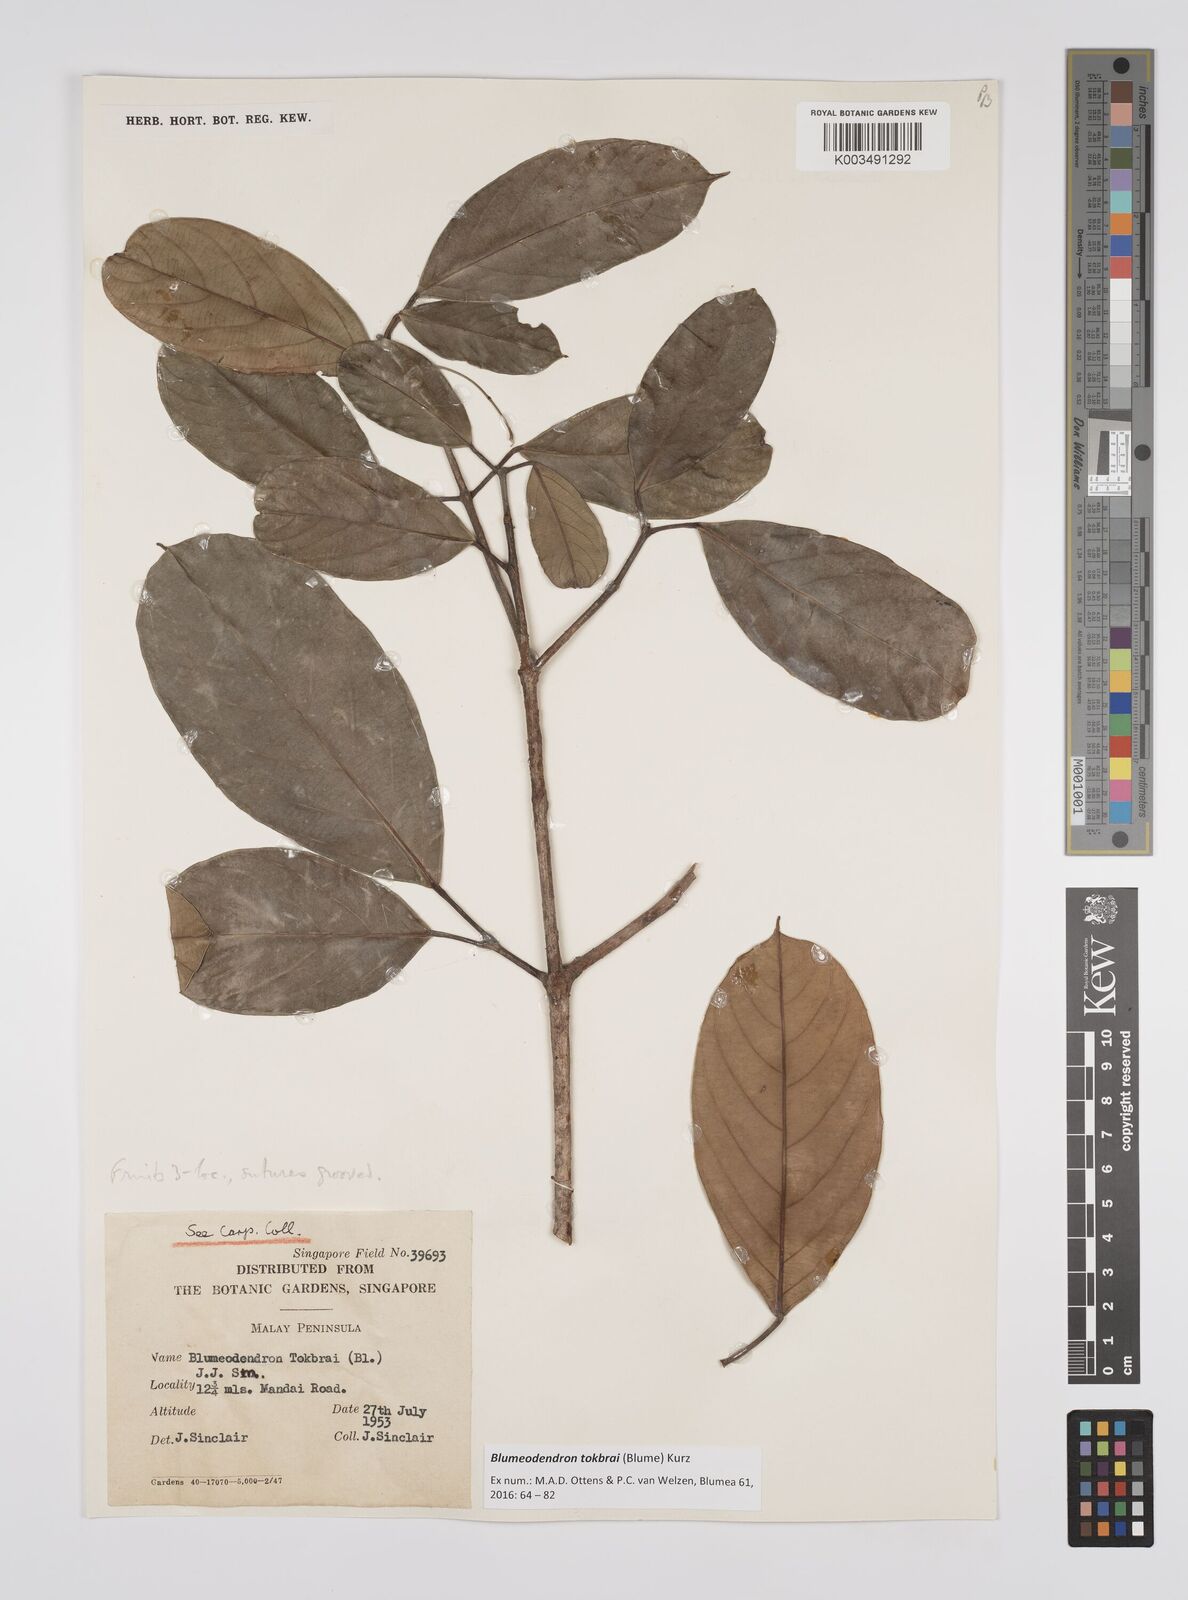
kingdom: Plantae
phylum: Tracheophyta
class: Magnoliopsida
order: Malpighiales
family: Euphorbiaceae
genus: Blumeodendron
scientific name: Blumeodendron tokbrai
